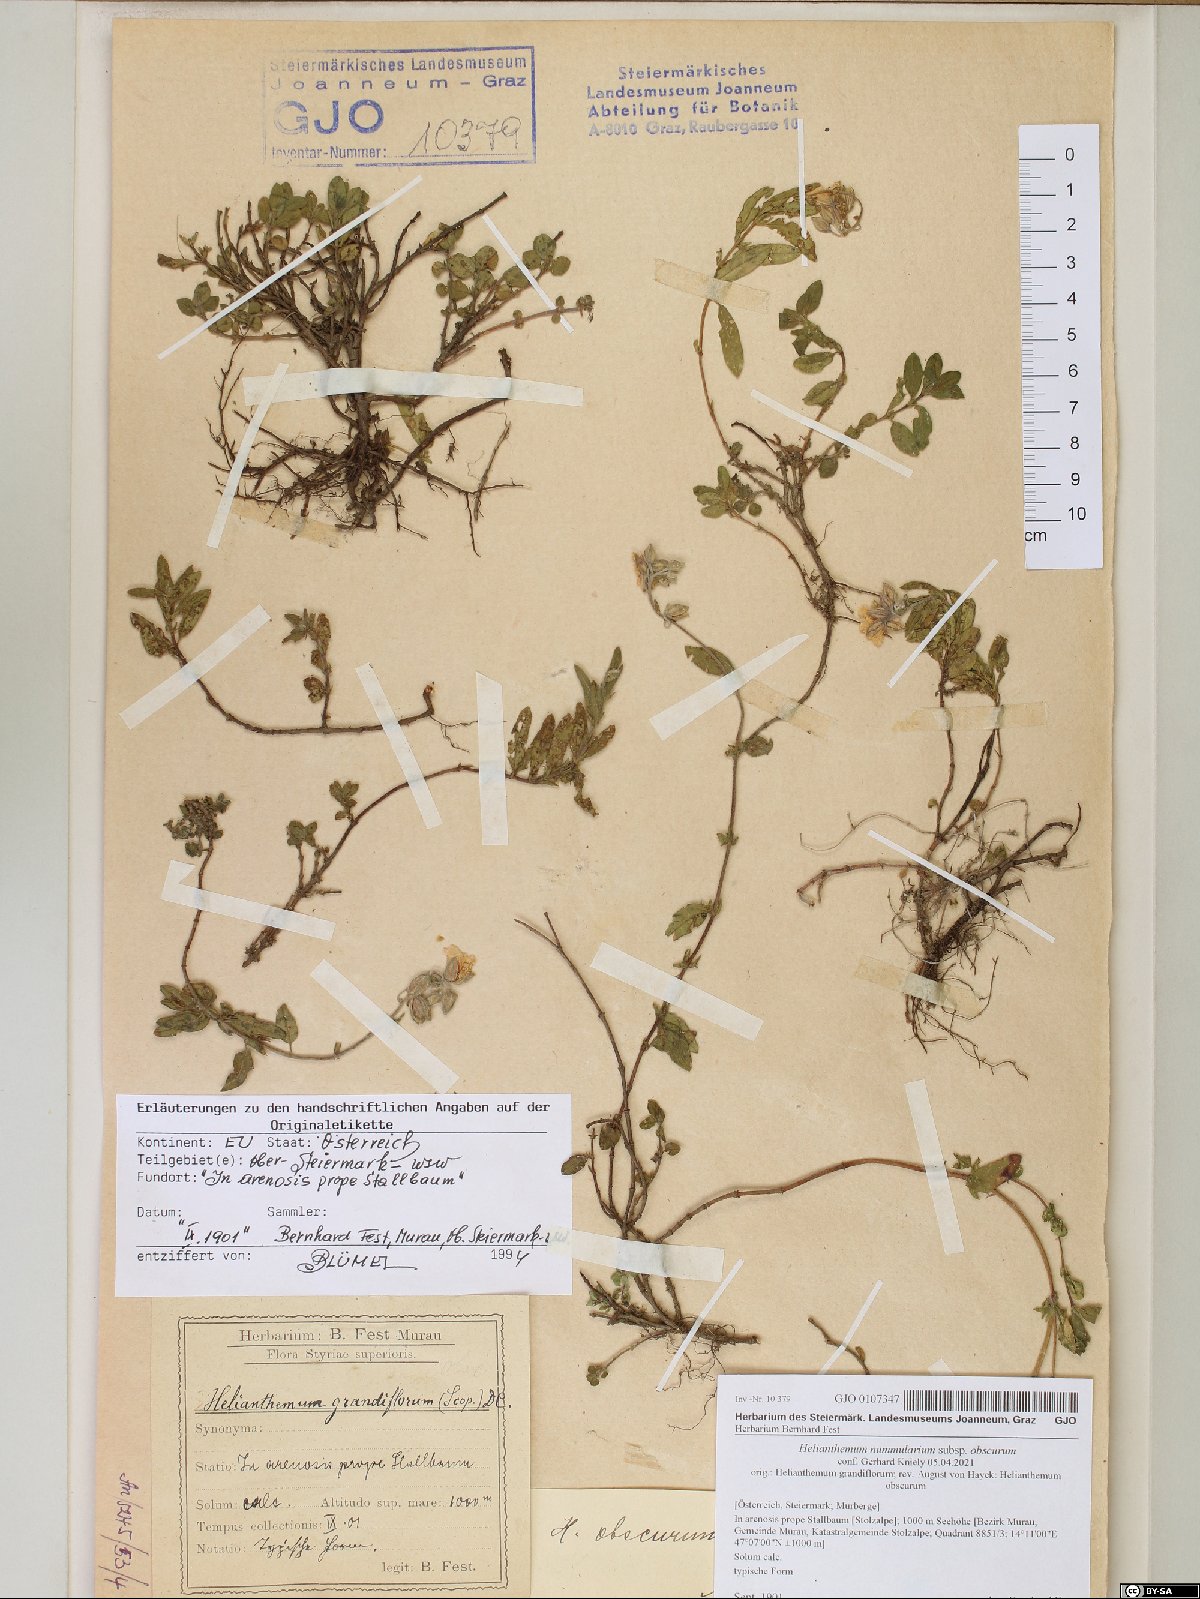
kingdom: Plantae
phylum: Tracheophyta
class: Magnoliopsida
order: Malvales
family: Cistaceae
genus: Helianthemum
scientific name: Helianthemum nummularium
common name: Common rock-rose
